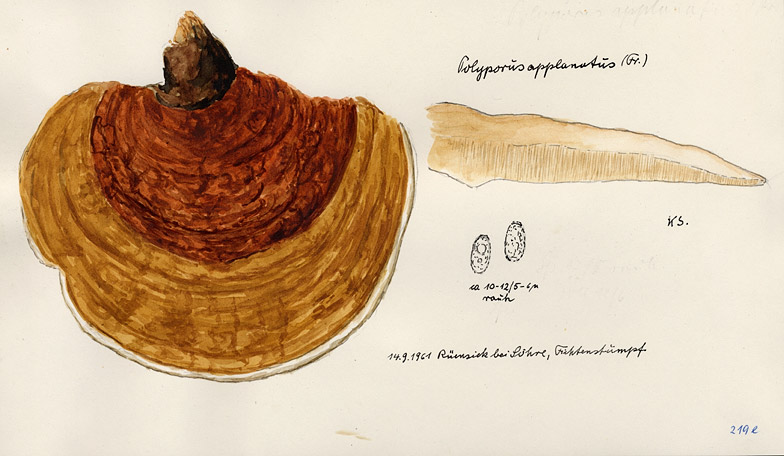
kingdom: Fungi
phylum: Basidiomycota
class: Agaricomycetes
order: Polyporales
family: Polyporaceae
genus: Ganoderma
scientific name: Ganoderma applanatum
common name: Artist's bracket
